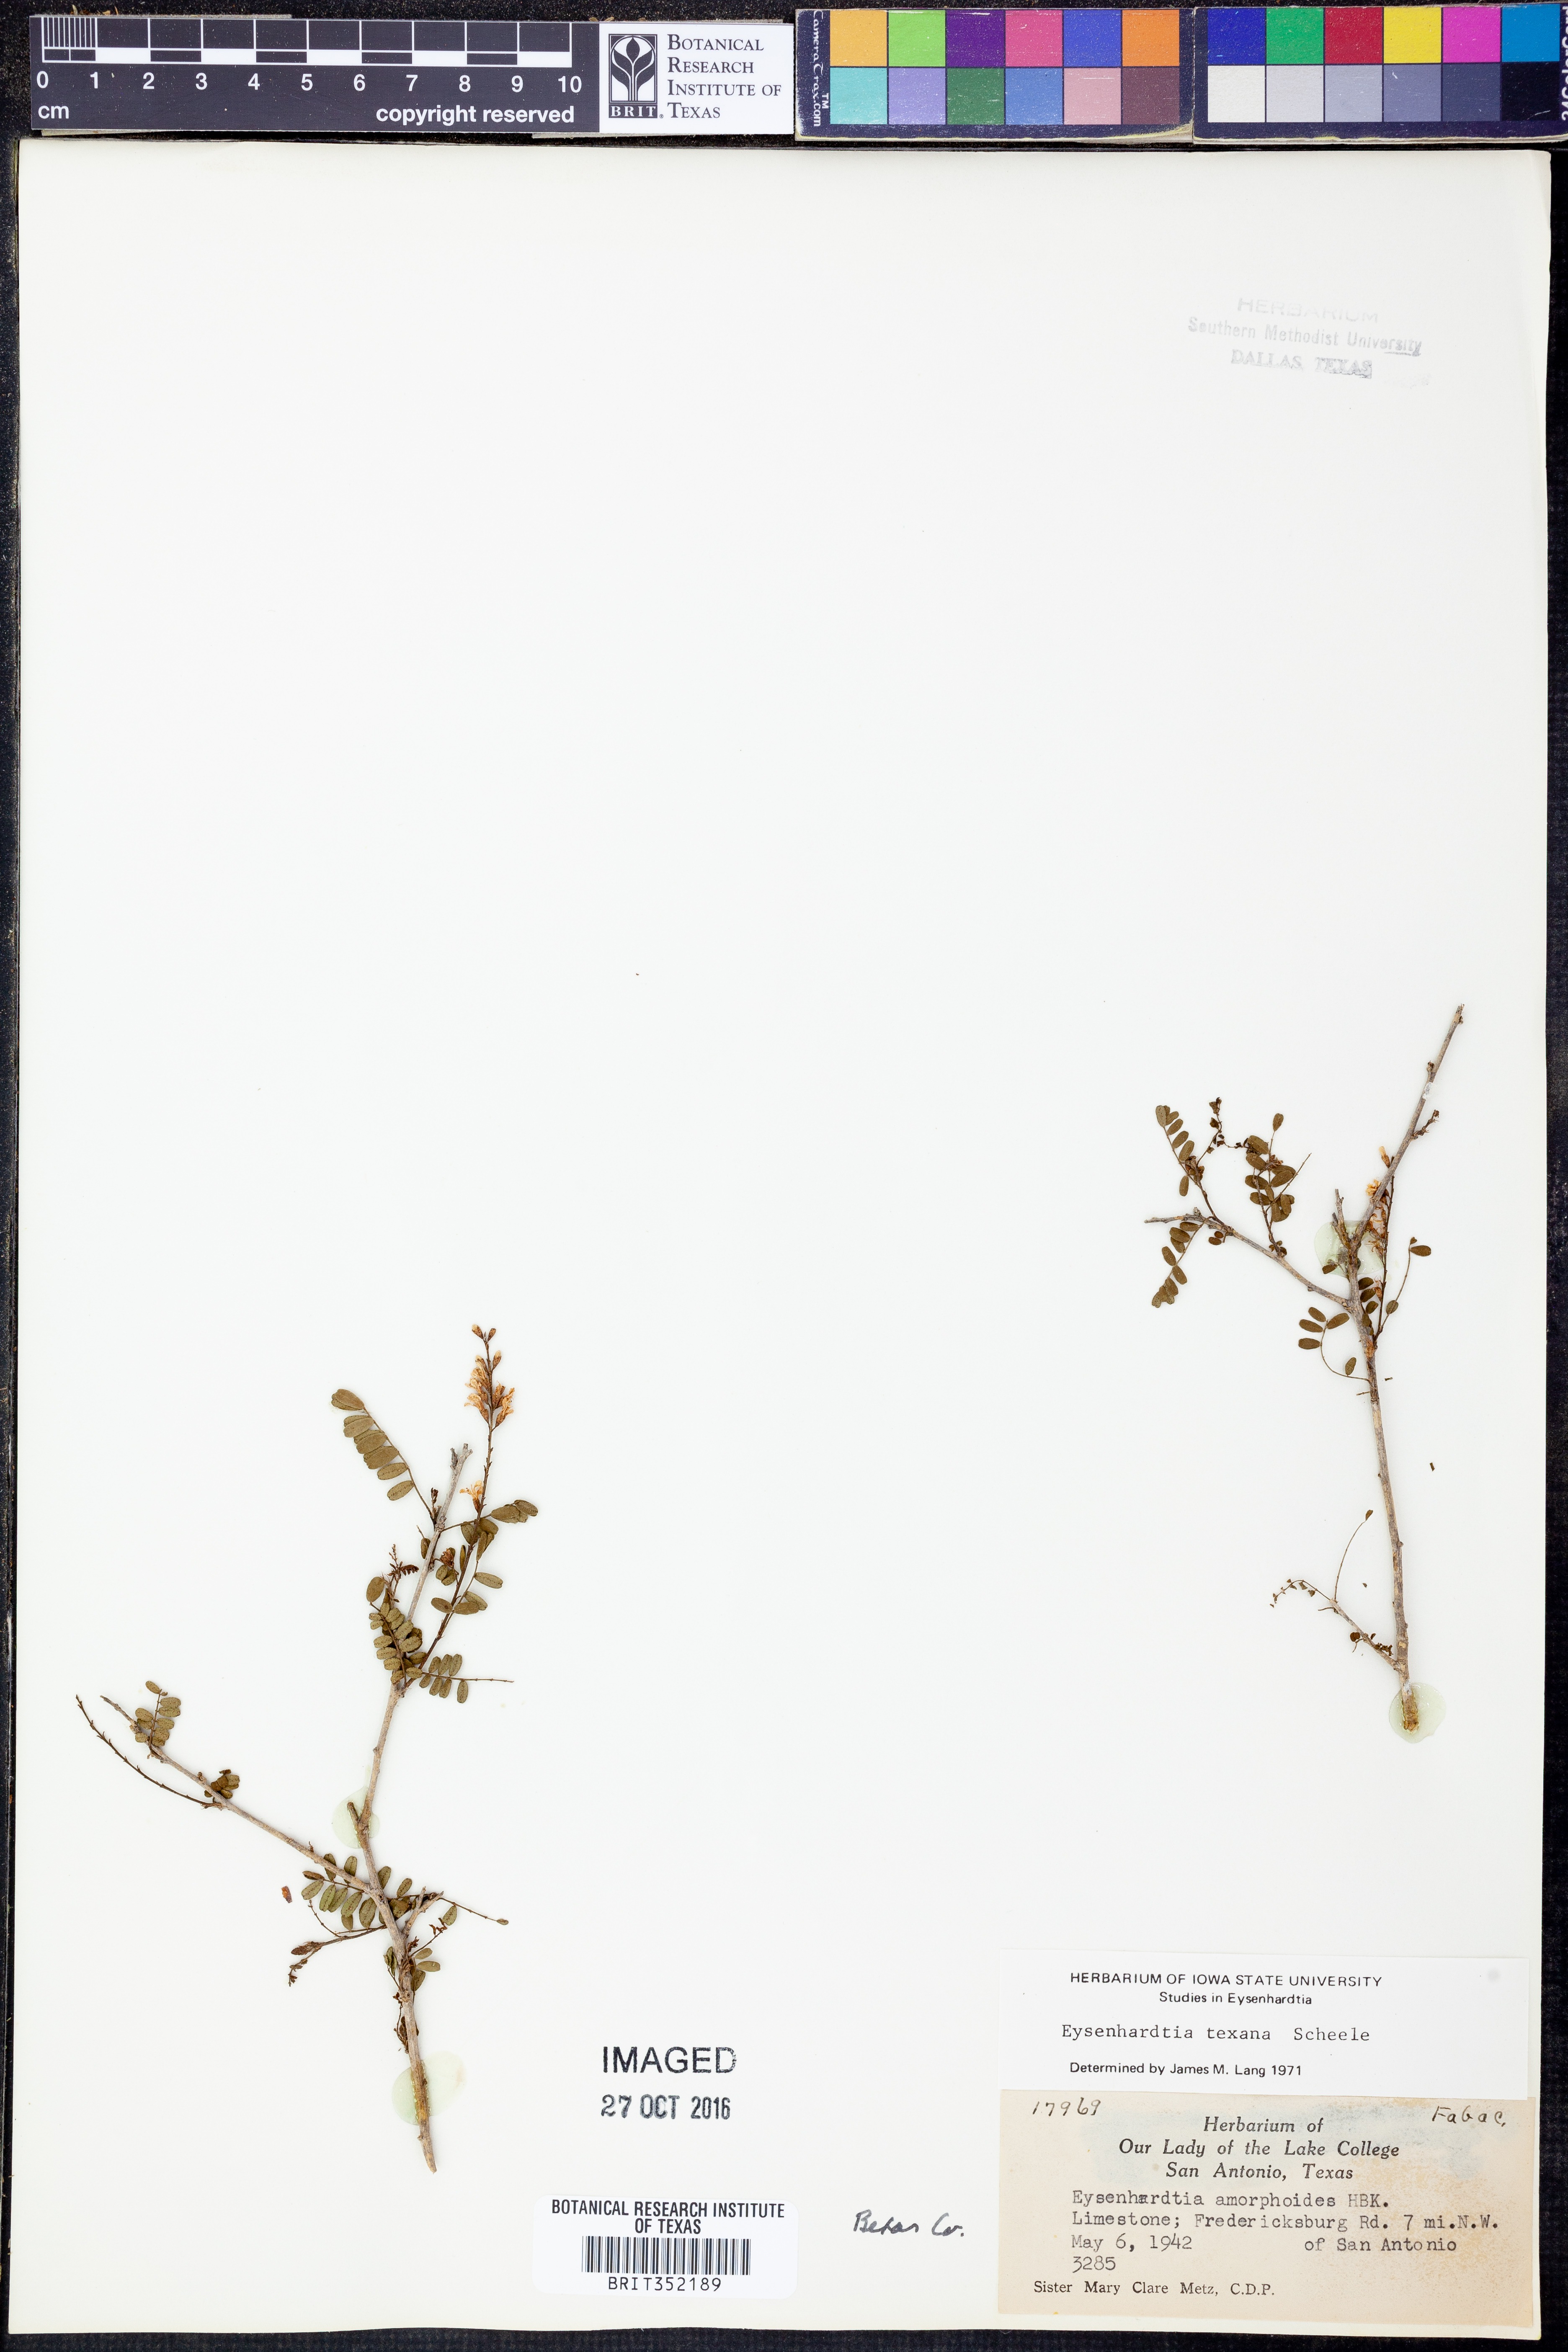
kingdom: Plantae
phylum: Tracheophyta
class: Magnoliopsida
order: Fabales
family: Fabaceae
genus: Eysenhardtia
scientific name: Eysenhardtia texana
